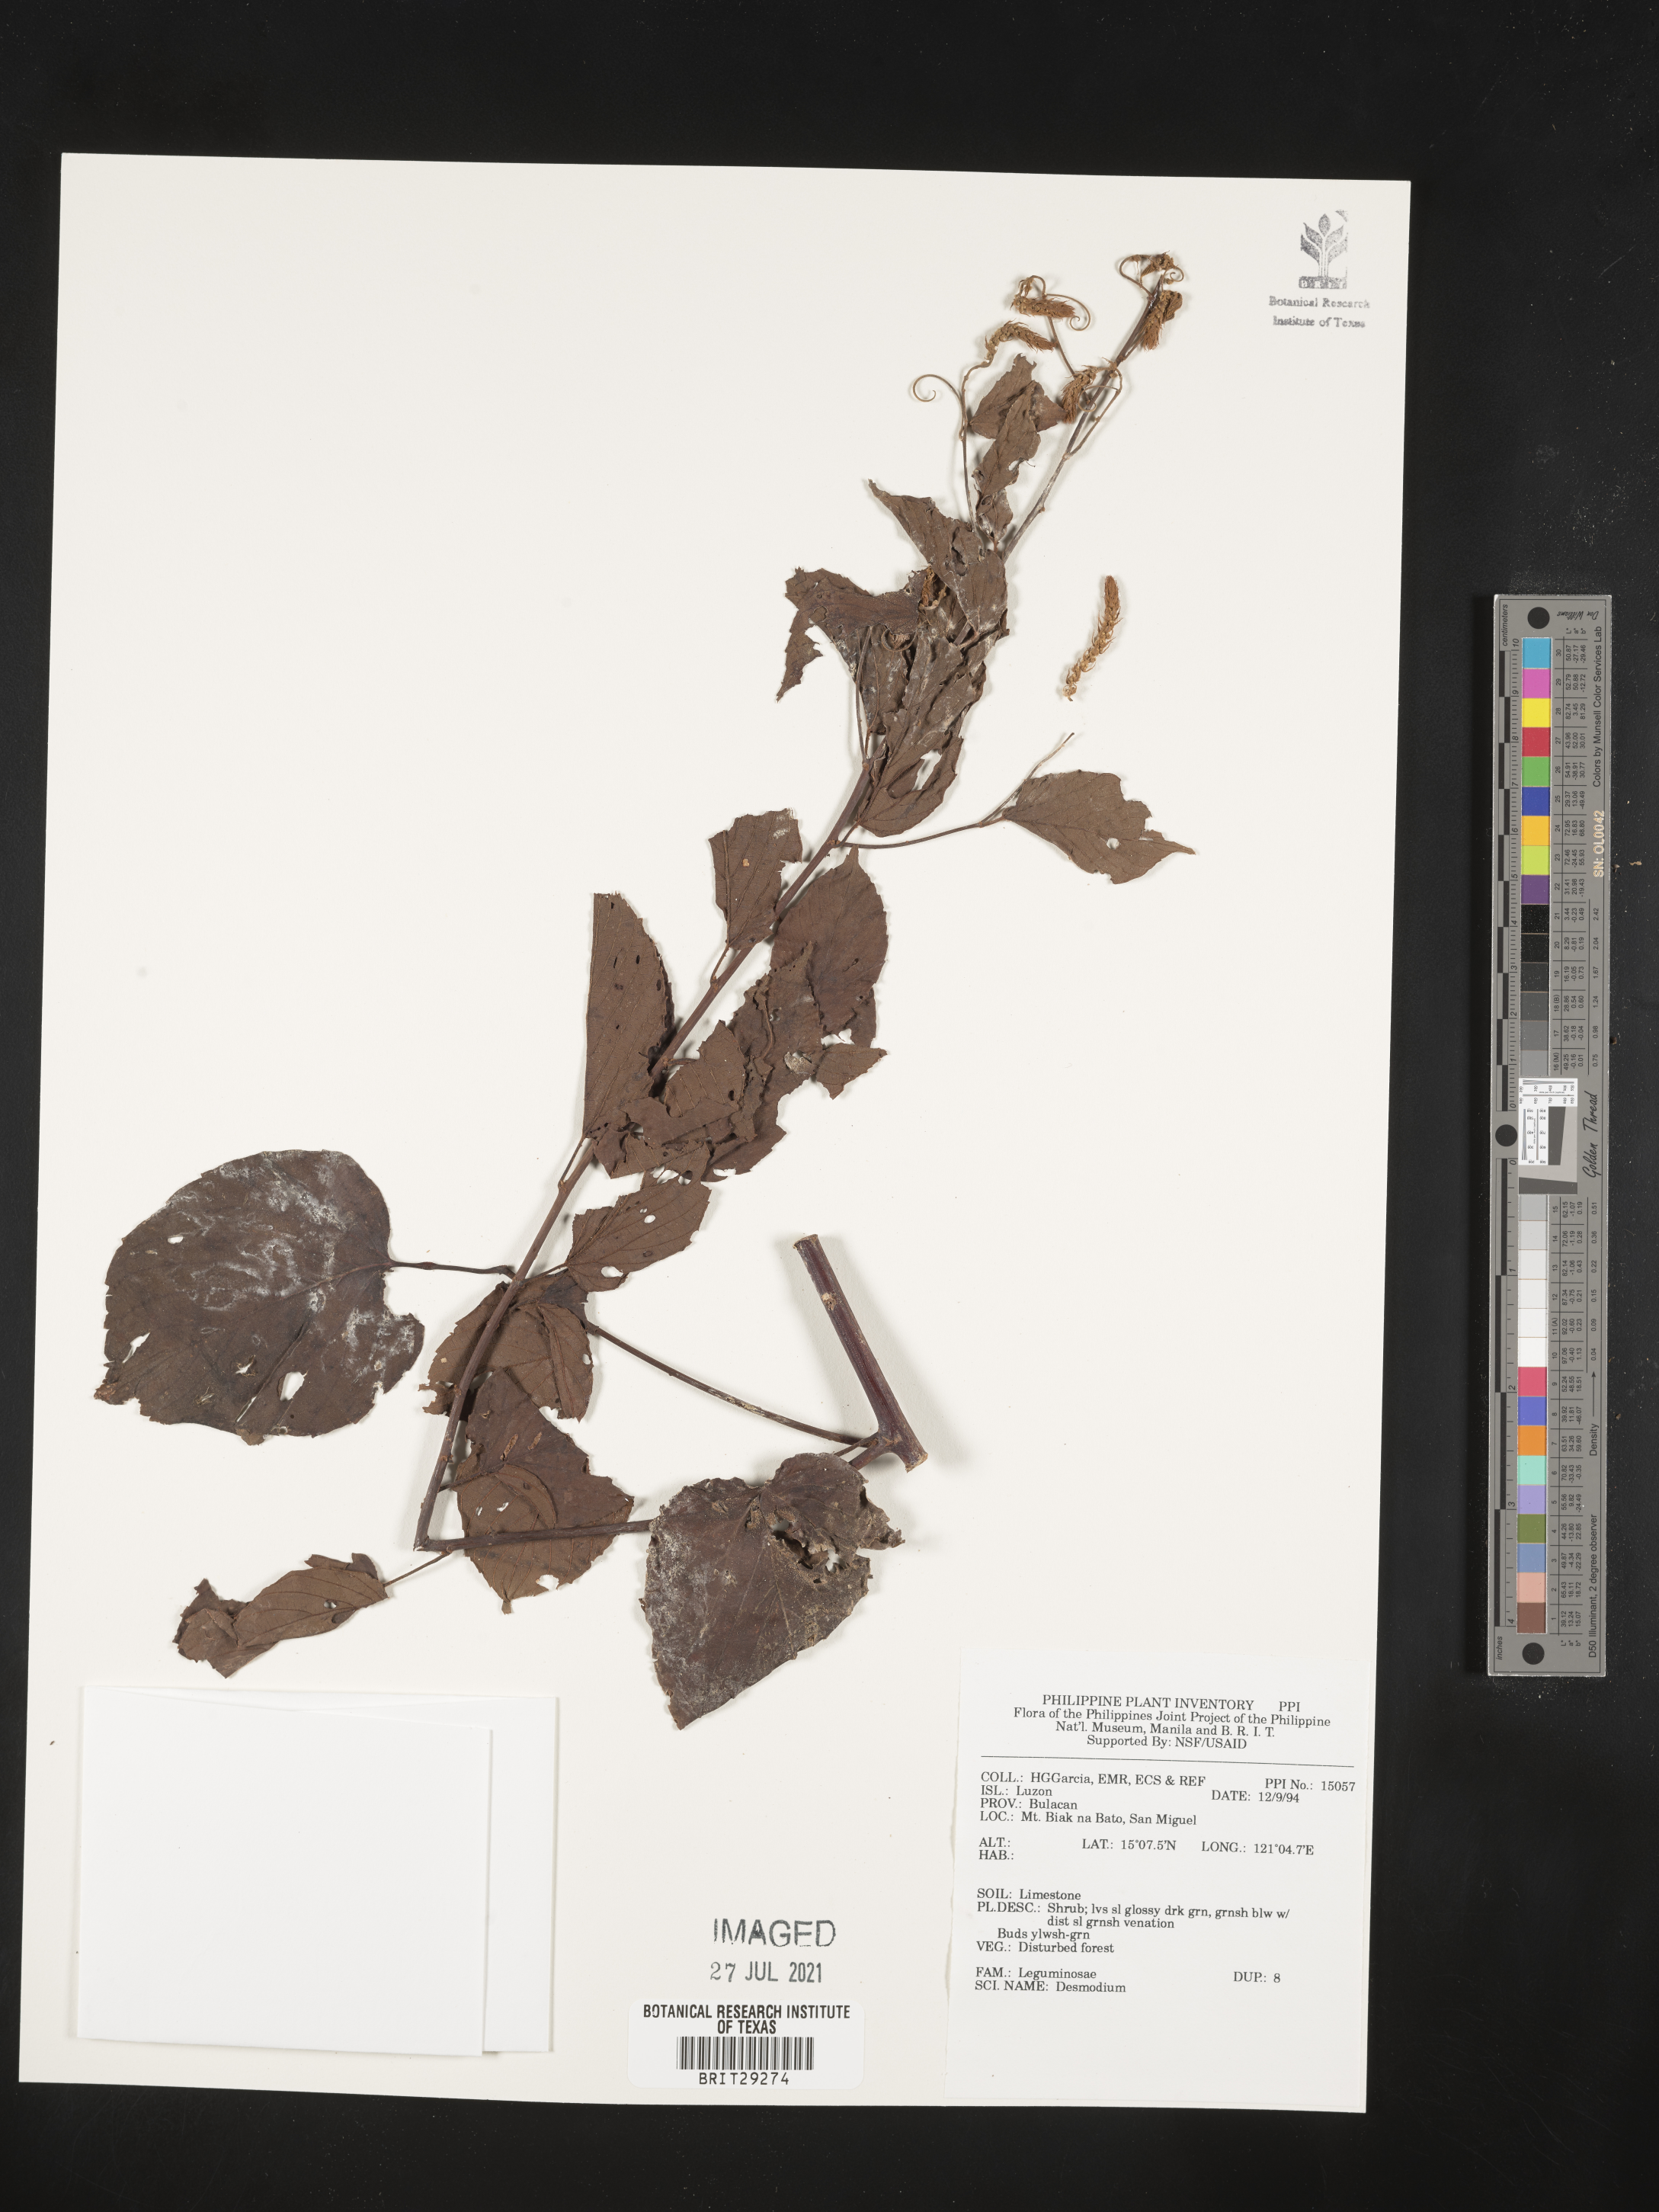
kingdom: Plantae
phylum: Tracheophyta
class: Magnoliopsida
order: Fabales
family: Fabaceae
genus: Desmodium
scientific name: Desmodium
